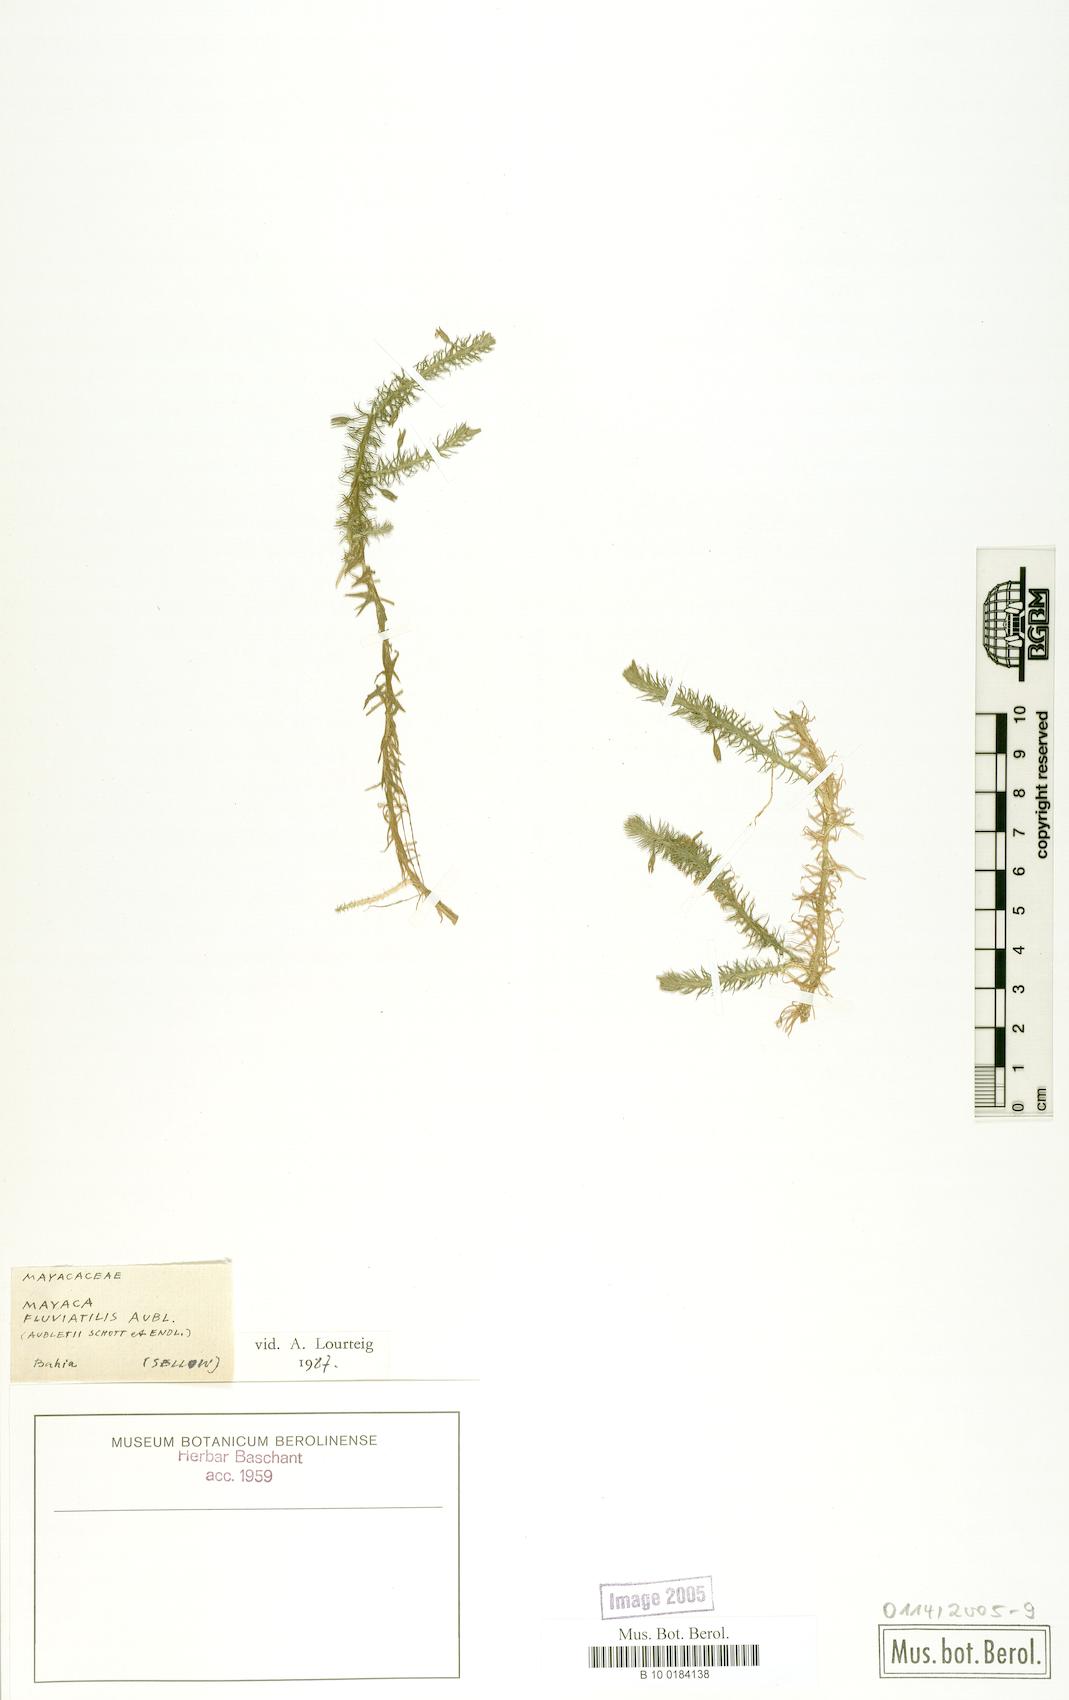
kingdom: Plantae
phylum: Tracheophyta
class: Liliopsida
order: Poales
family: Mayacaceae
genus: Mayaca
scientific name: Mayaca fluviatilis
